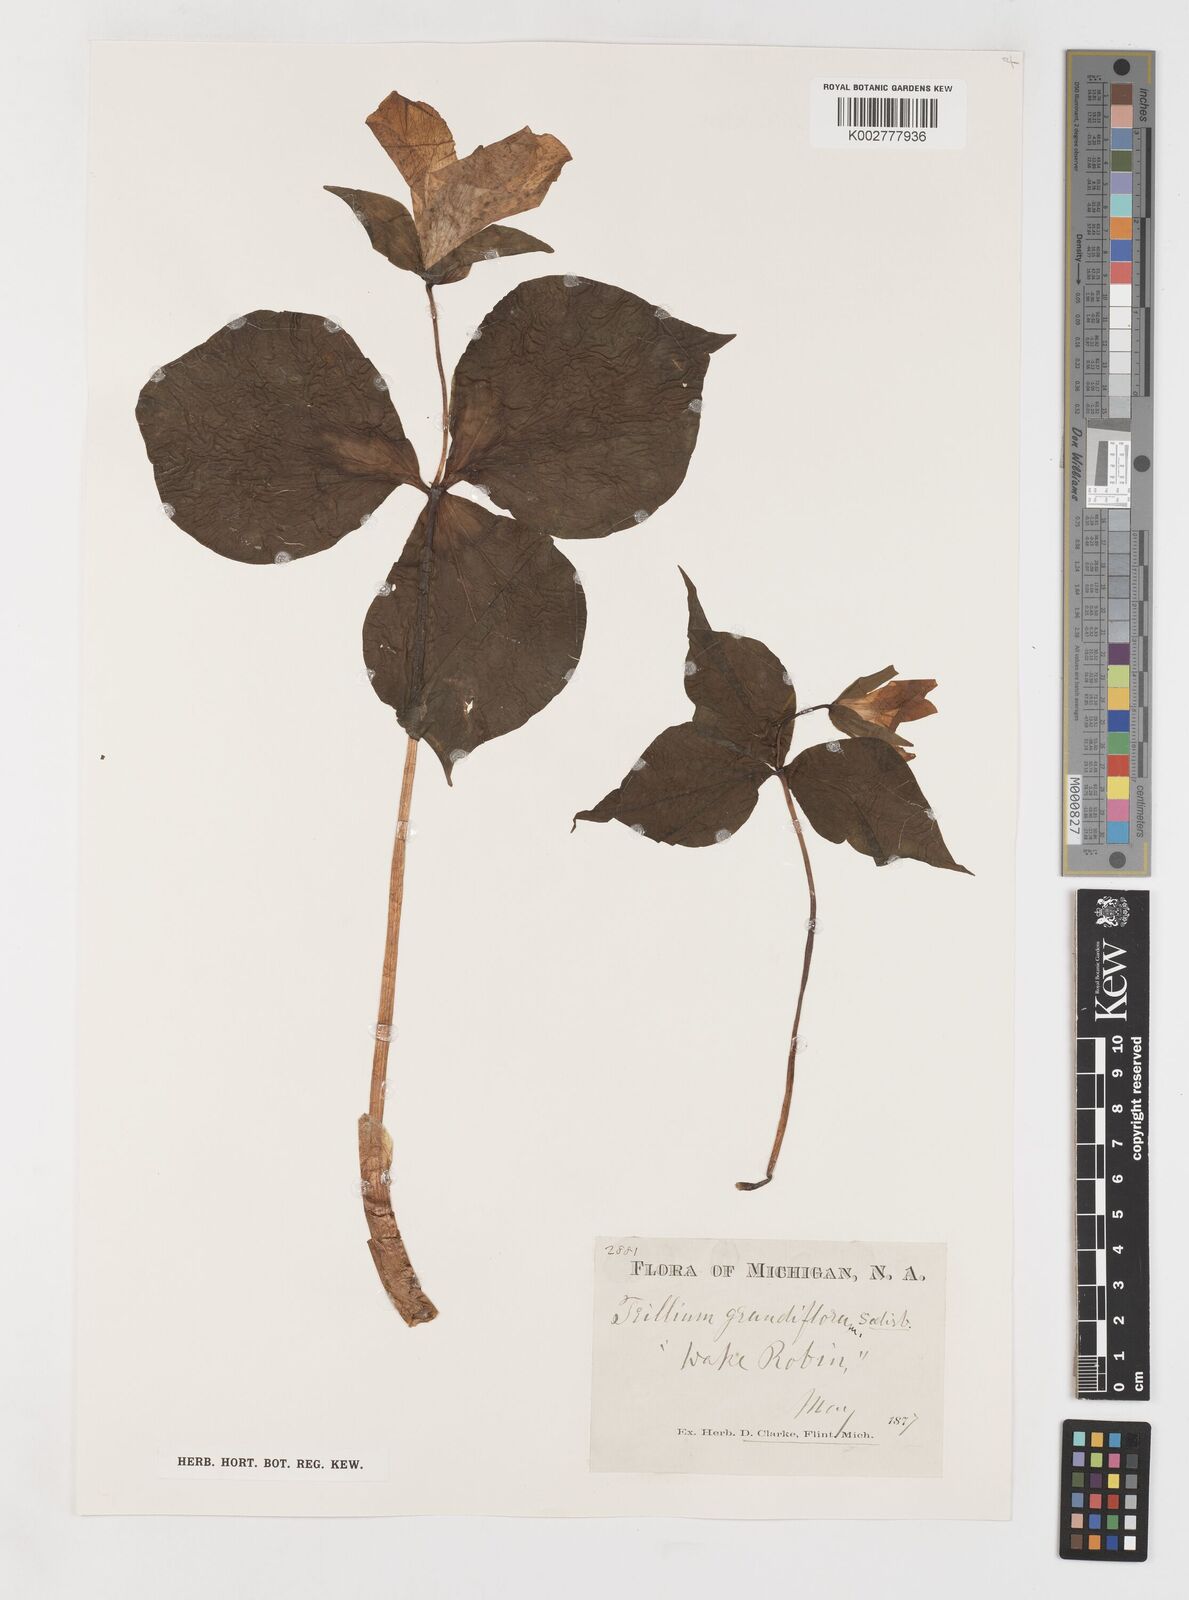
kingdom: Plantae
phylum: Tracheophyta
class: Liliopsida
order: Liliales
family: Melanthiaceae
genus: Trillium
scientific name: Trillium grandiflorum
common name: Great white trillium
